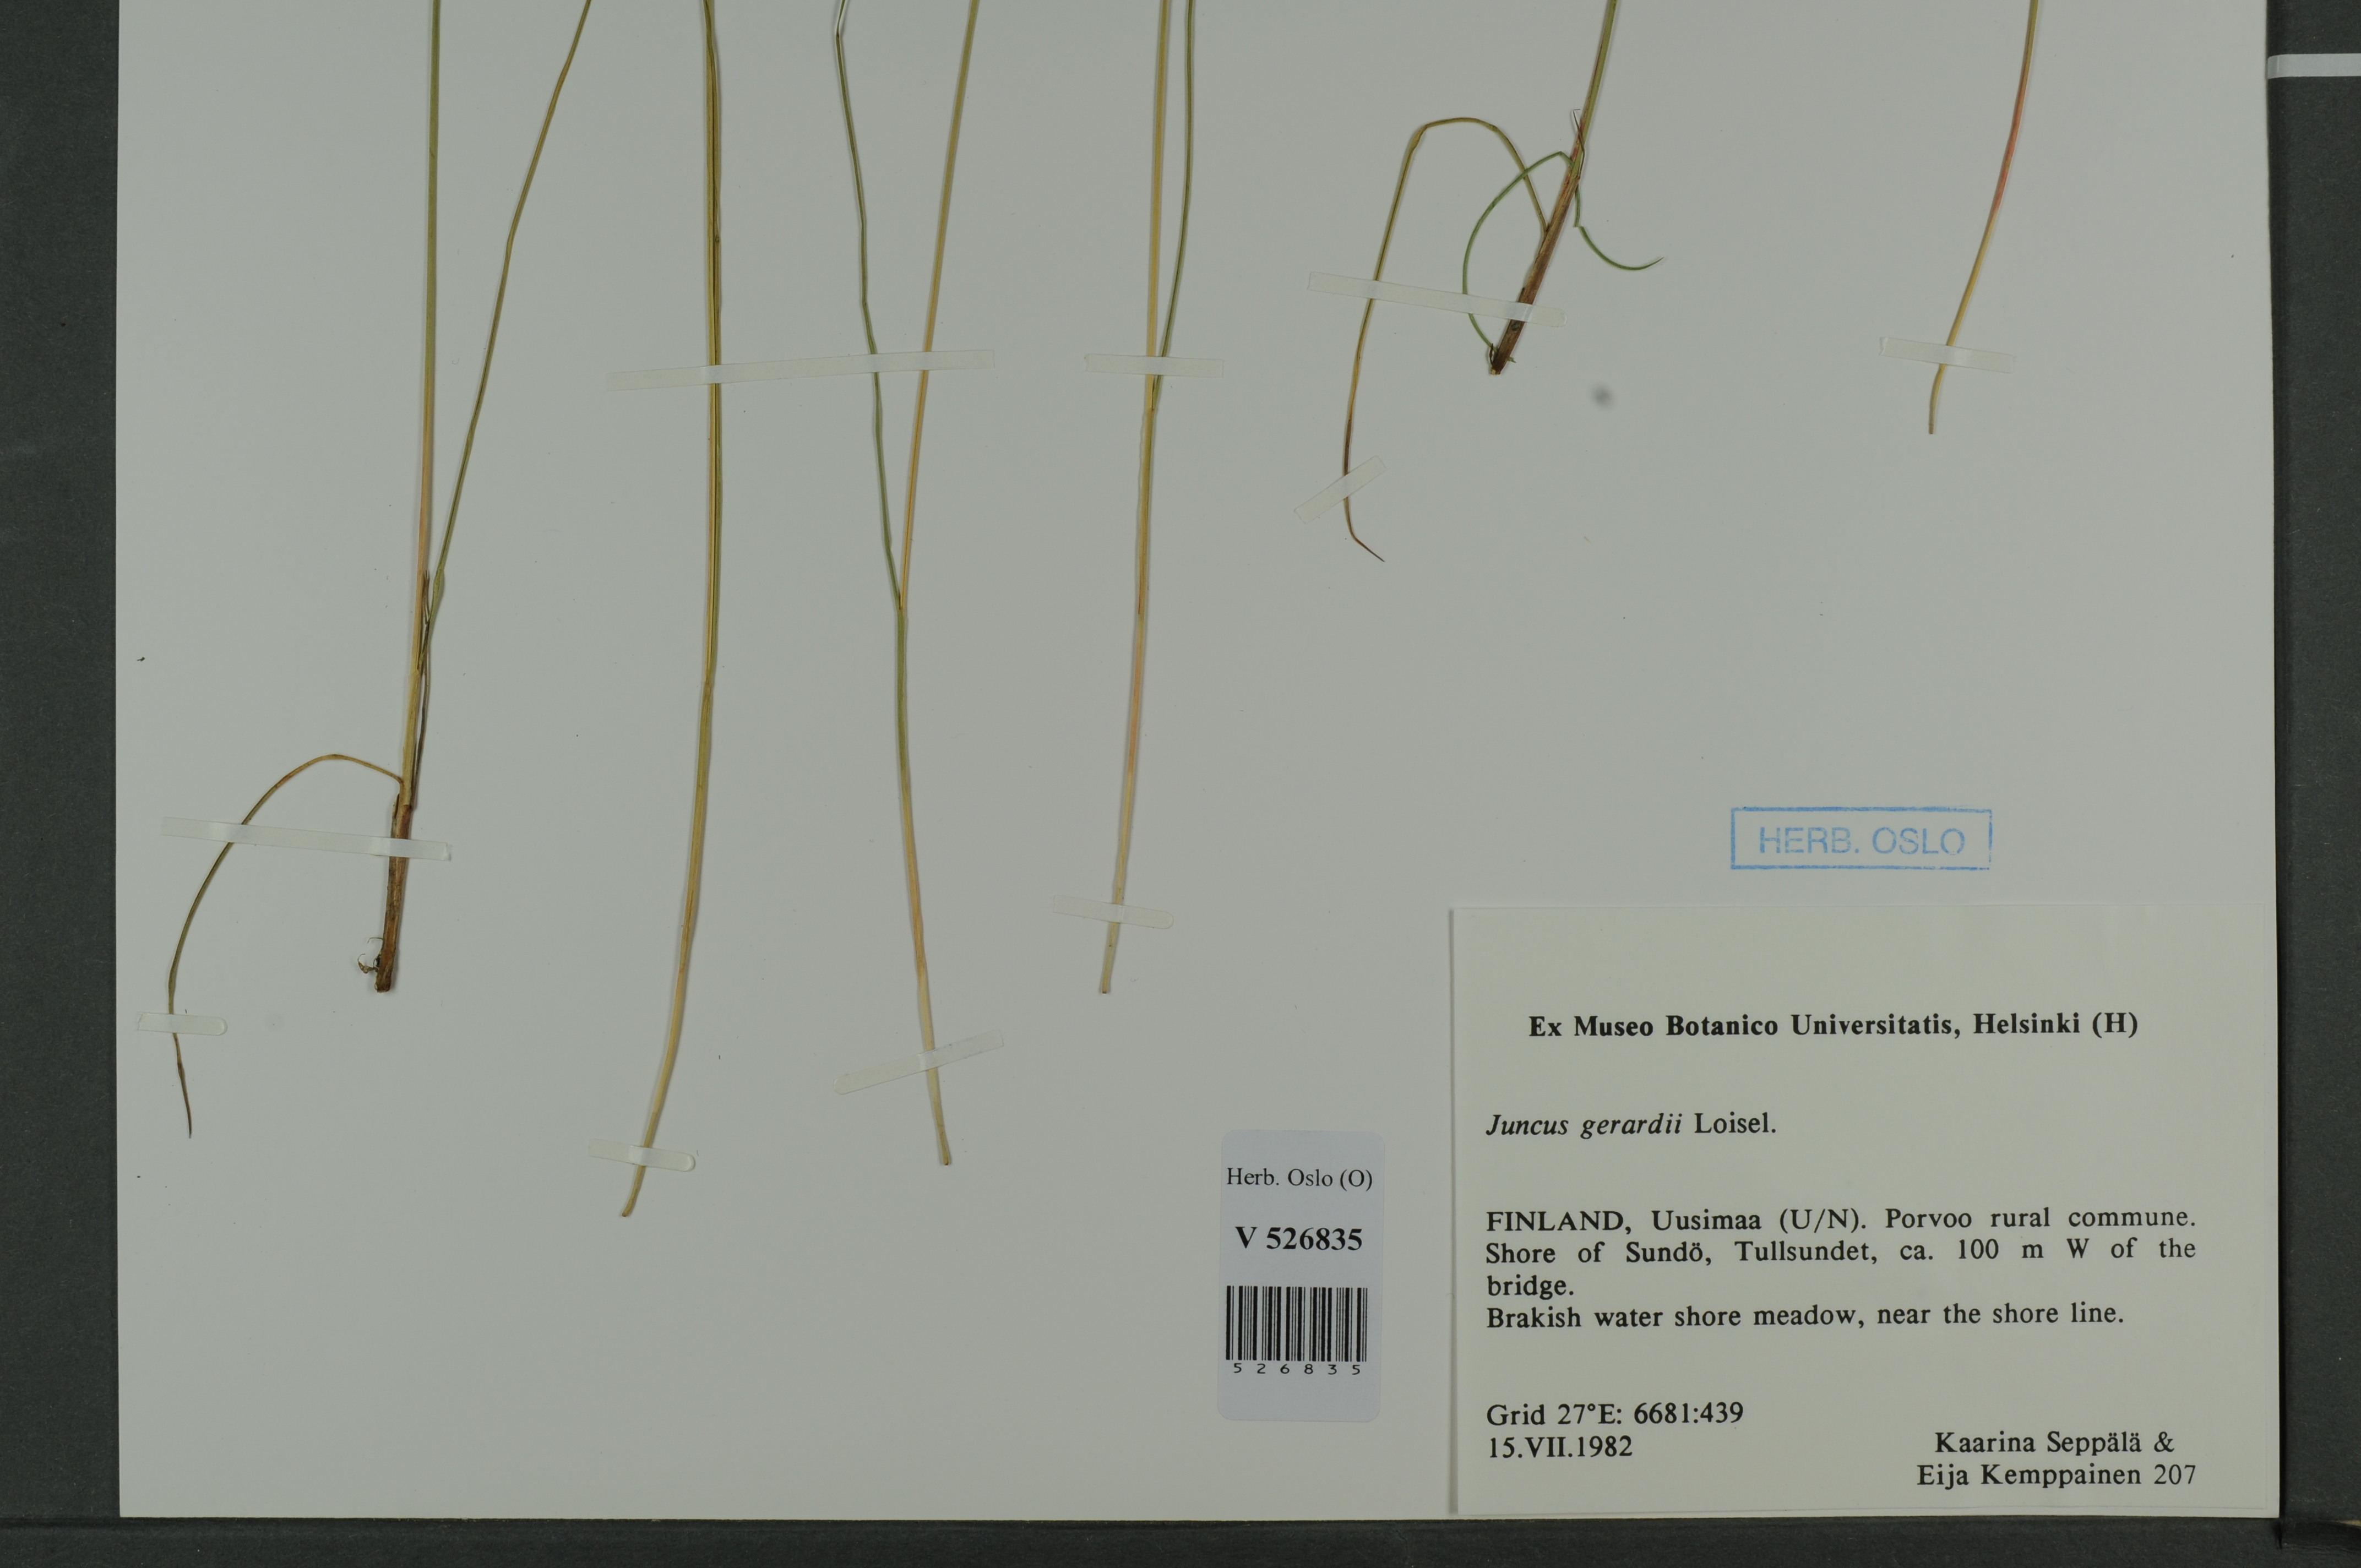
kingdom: Plantae
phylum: Tracheophyta
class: Liliopsida
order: Poales
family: Juncaceae
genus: Juncus
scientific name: Juncus gerardi
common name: Saltmarsh rush
